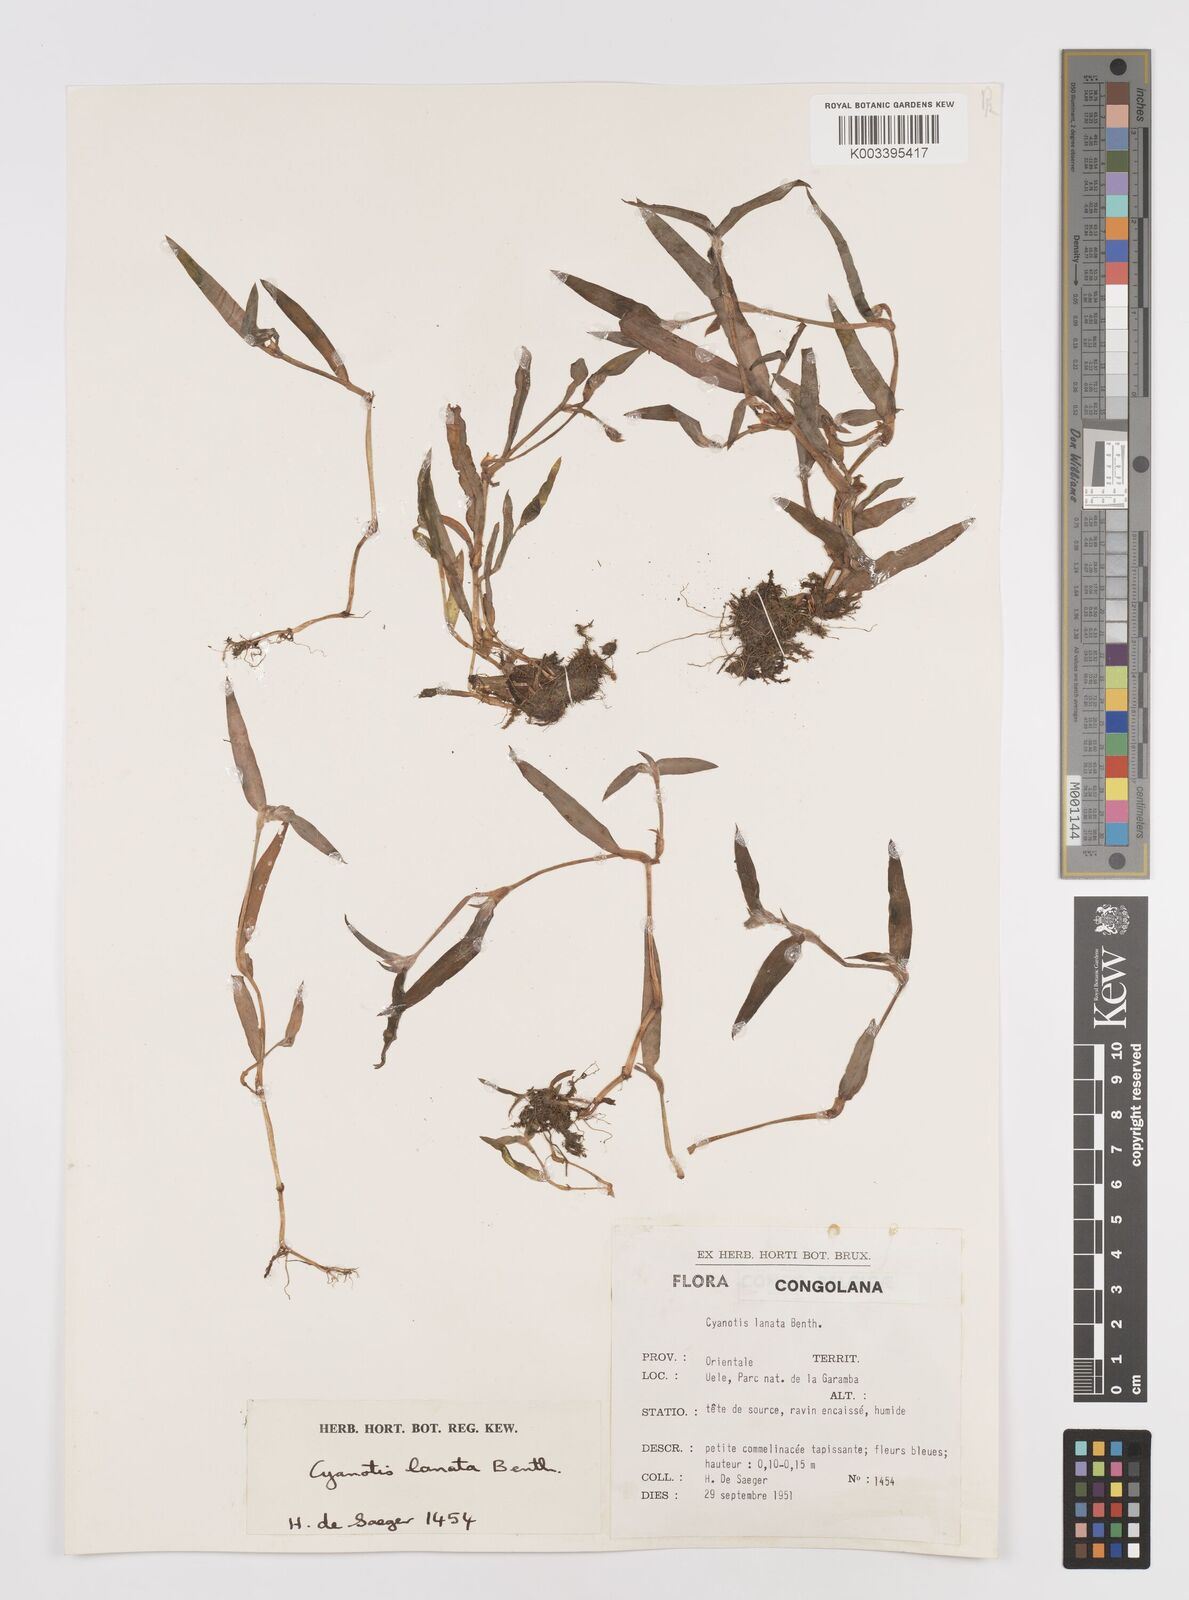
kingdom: Plantae
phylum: Tracheophyta
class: Liliopsida
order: Commelinales
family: Commelinaceae
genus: Cyanotis
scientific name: Cyanotis lanata
